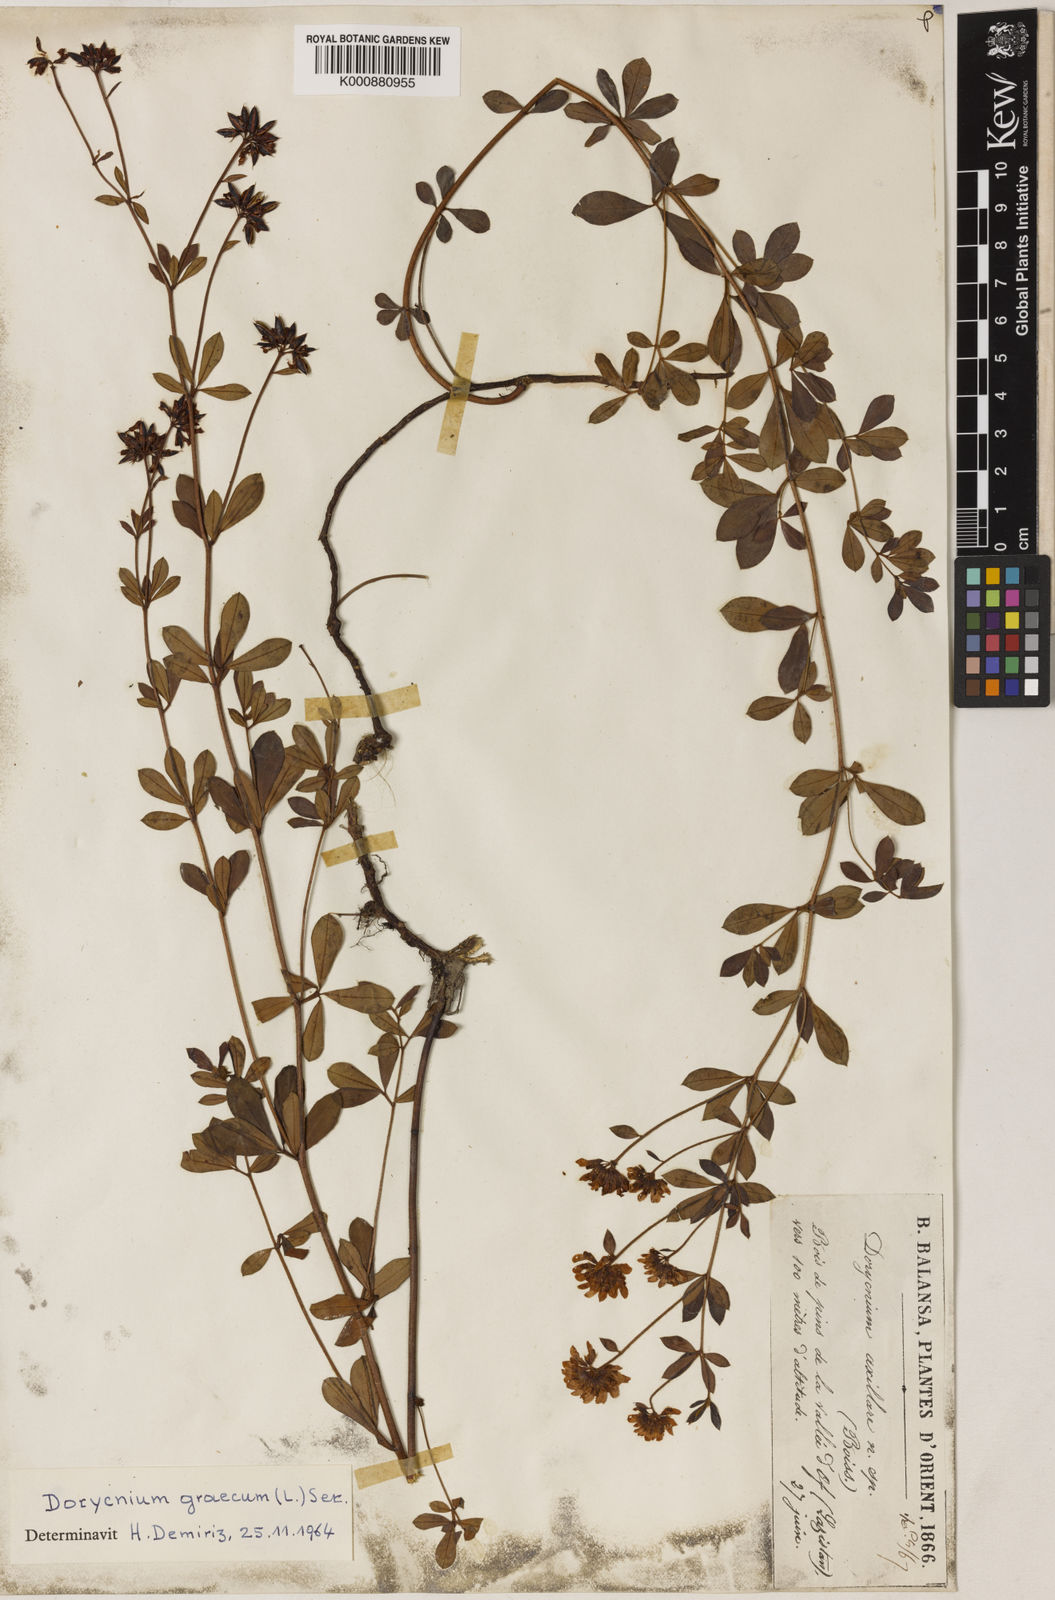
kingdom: Plantae
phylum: Tracheophyta
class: Magnoliopsida
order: Fabales
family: Fabaceae
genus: Lotus
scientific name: Lotus graecus
